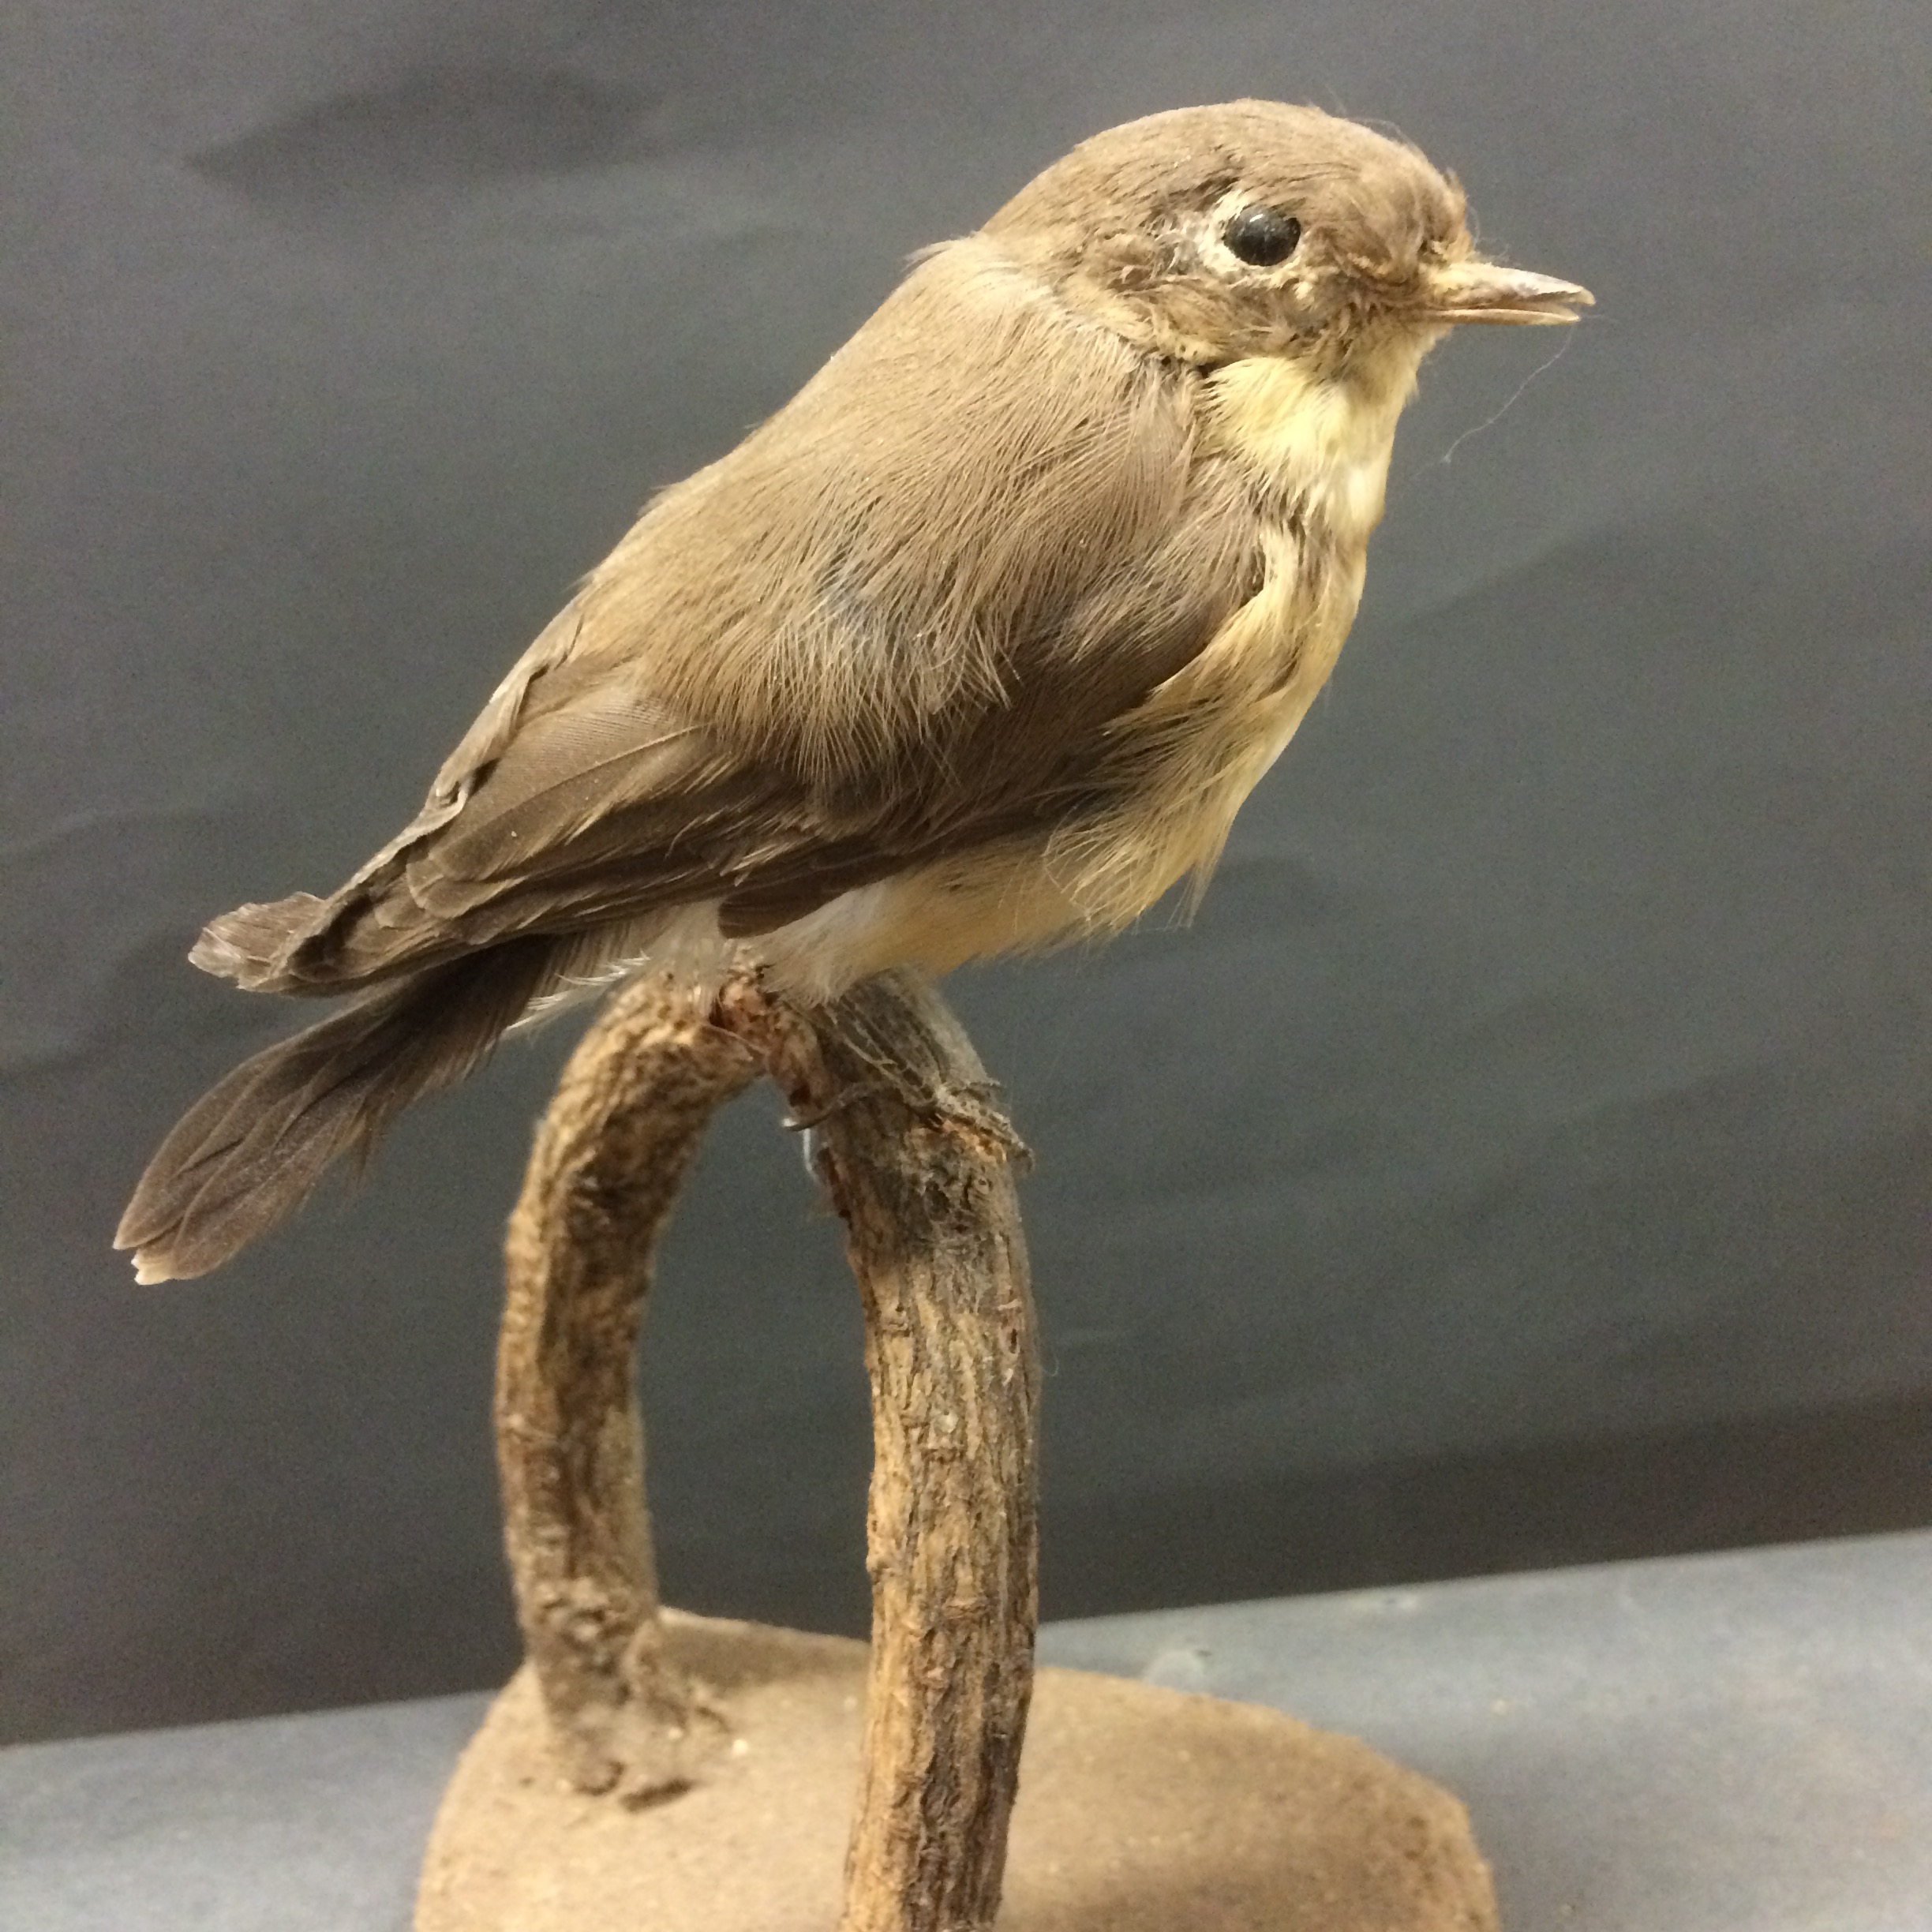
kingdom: Animalia
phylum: Chordata
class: Aves
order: Passeriformes
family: Muscicapidae
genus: Ficedula
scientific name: Ficedula parva
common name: Red-breasted flycatcher
